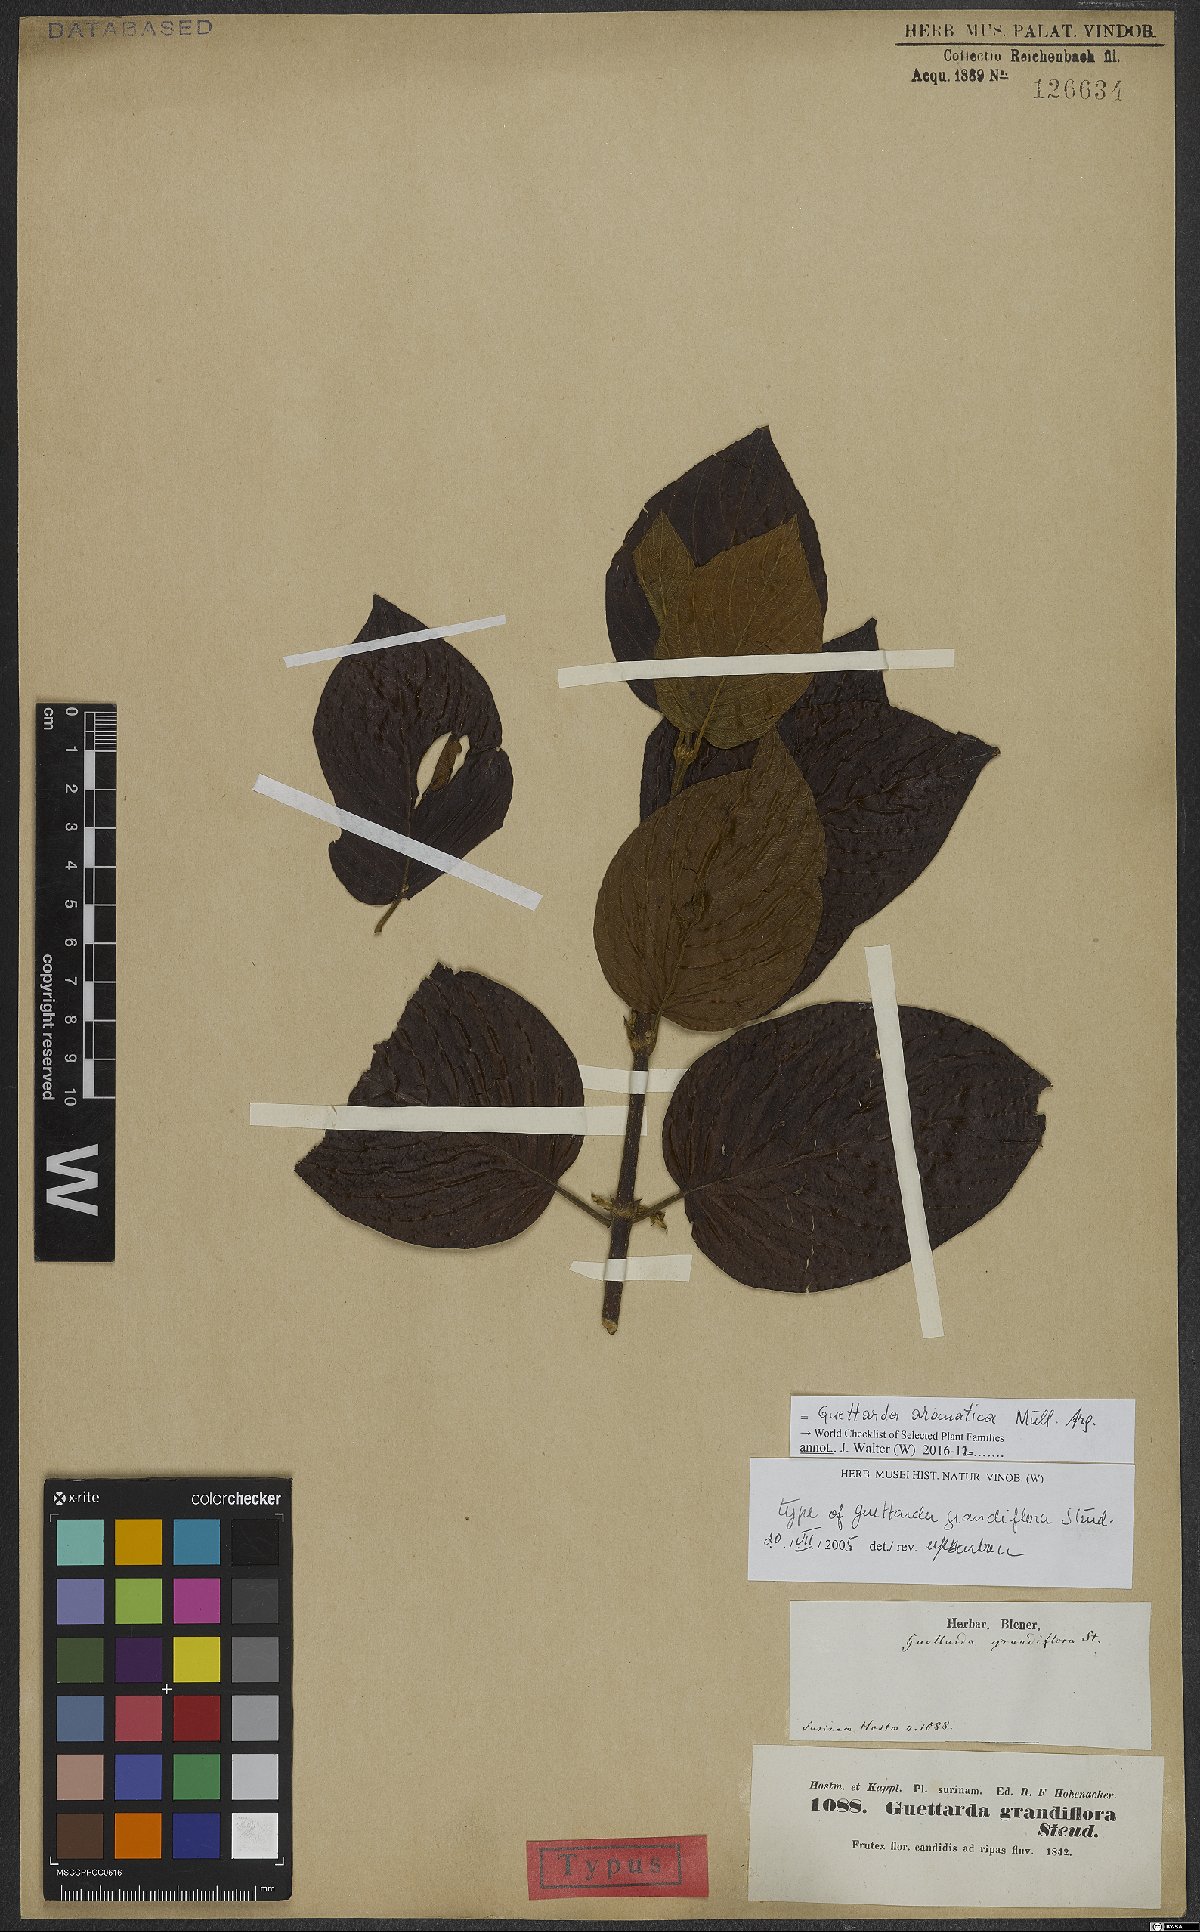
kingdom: Plantae
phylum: Tracheophyta
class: Magnoliopsida
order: Gentianales
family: Rubiaceae
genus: Guettarda
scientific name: Guettarda aromatica
